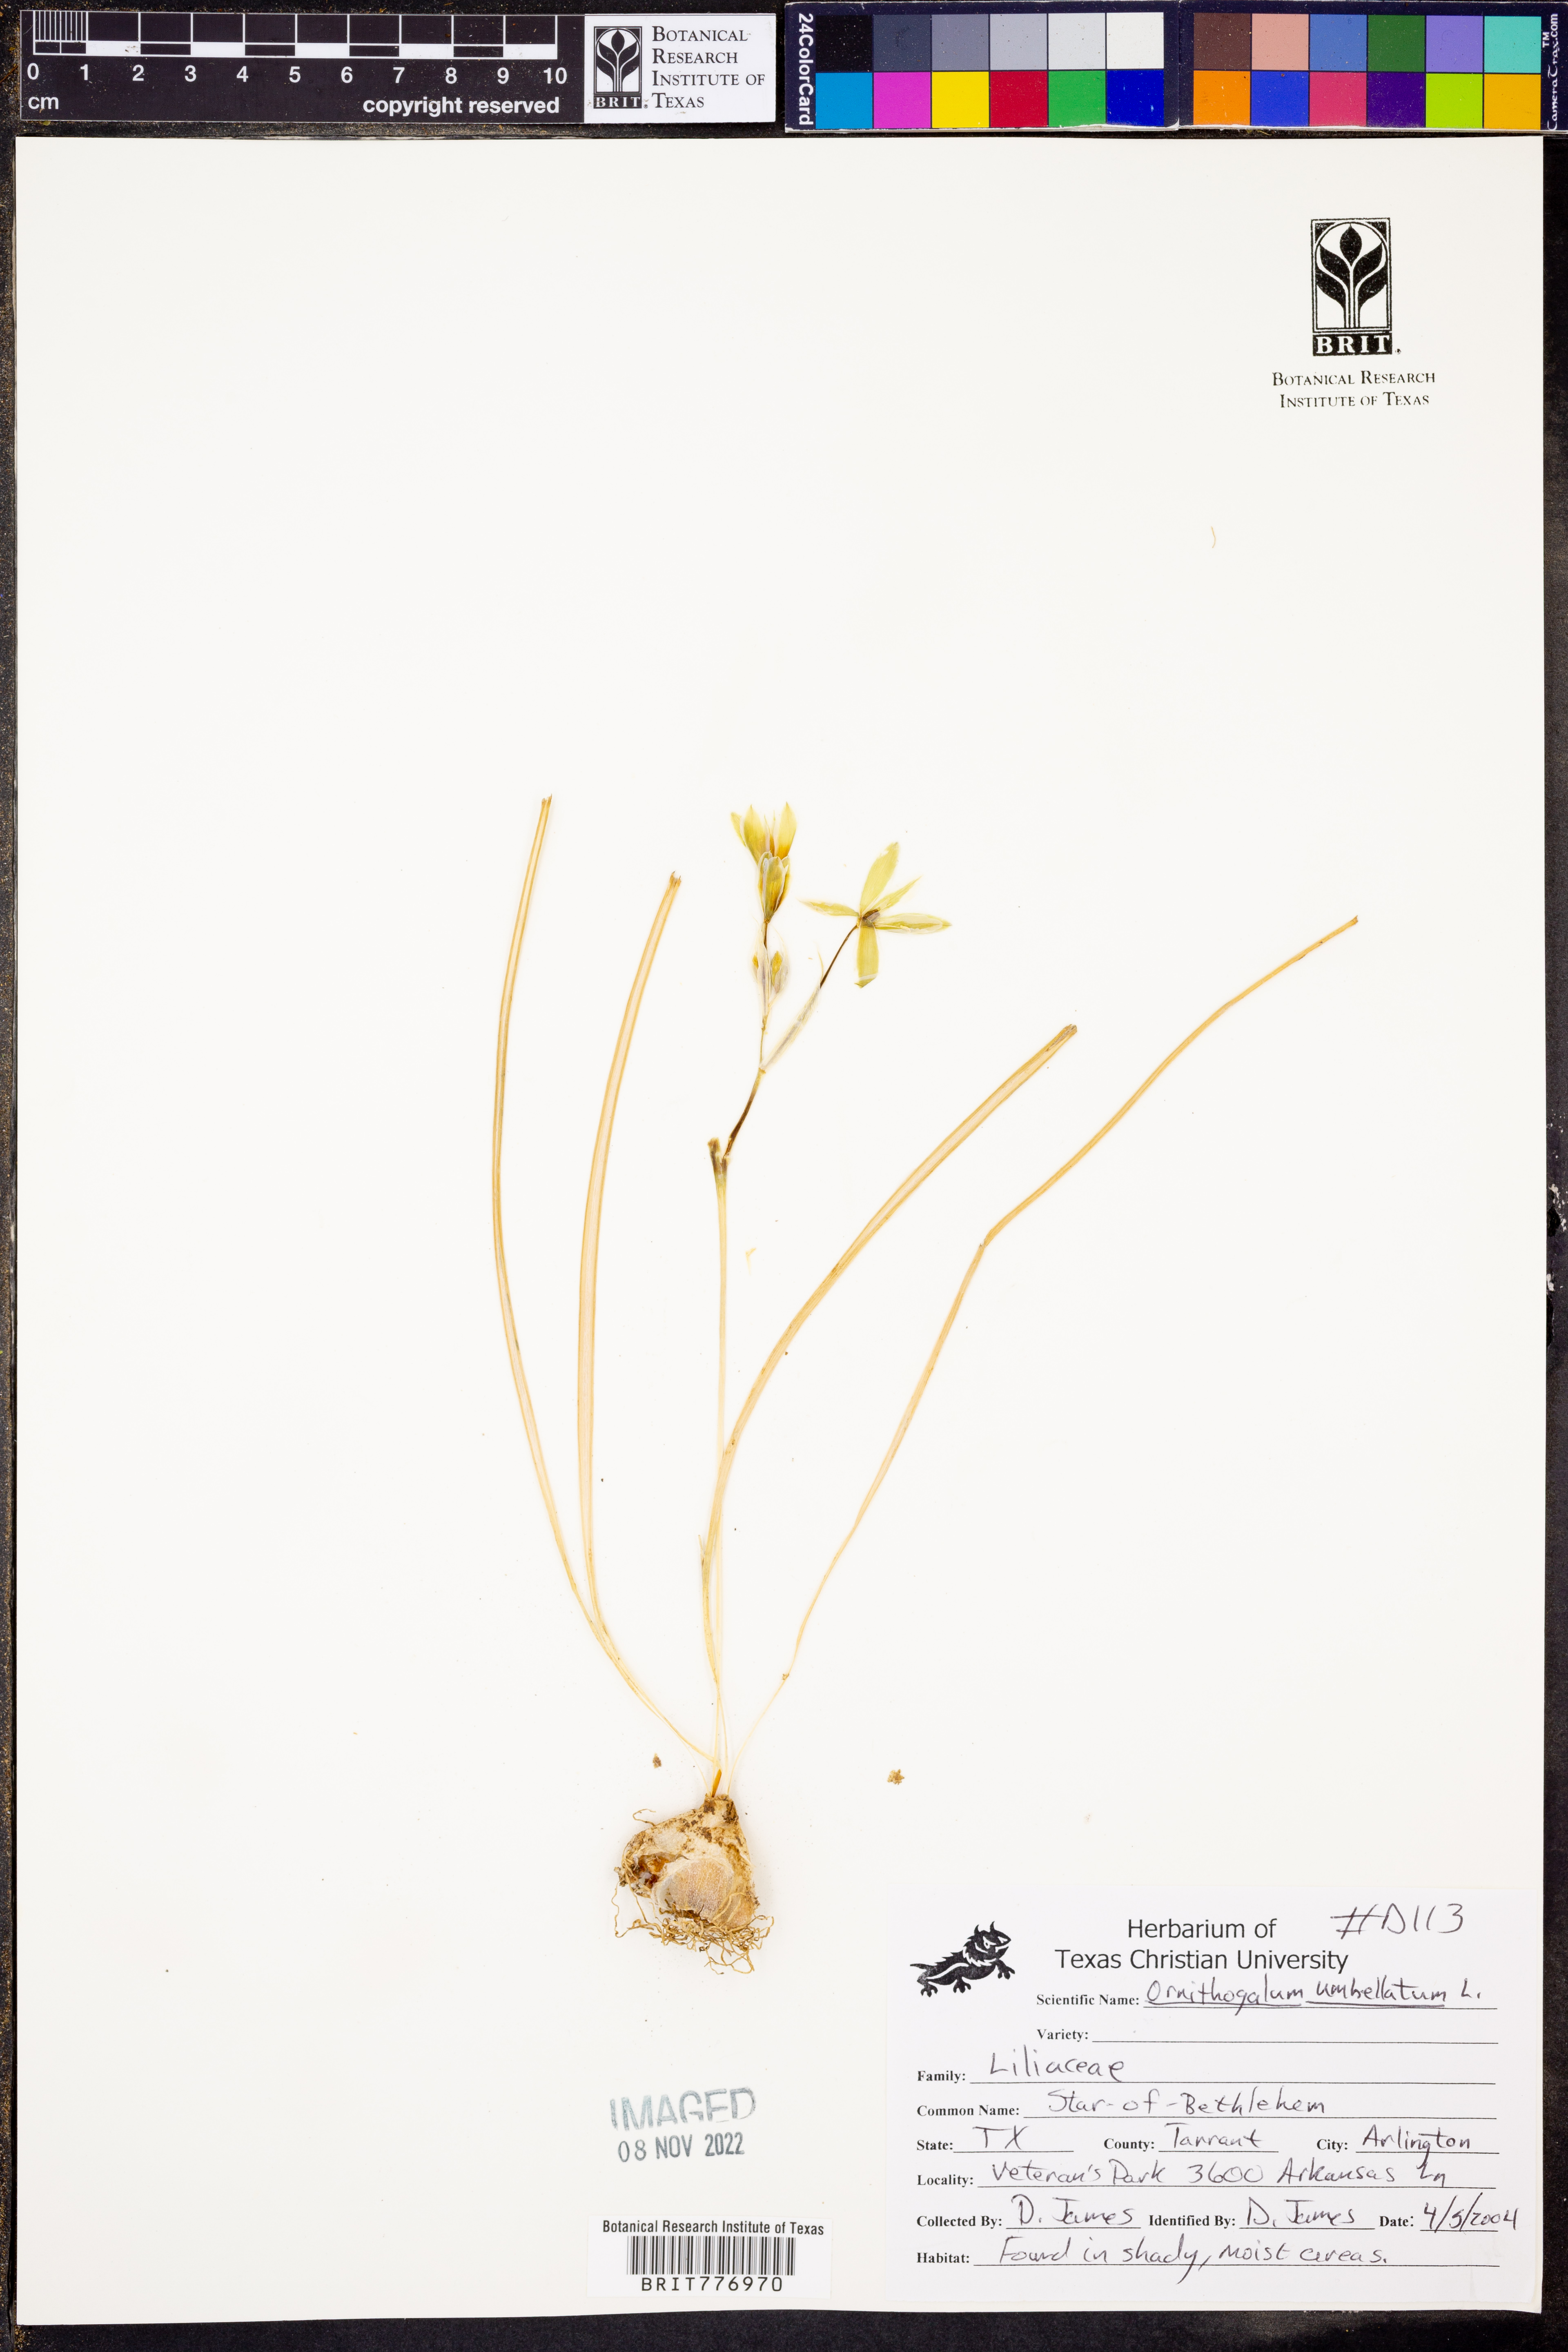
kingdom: Plantae
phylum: Tracheophyta
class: Liliopsida
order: Asparagales
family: Asparagaceae
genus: Ornithogalum
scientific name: Ornithogalum umbellatum
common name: Garden star-of-bethlehem
